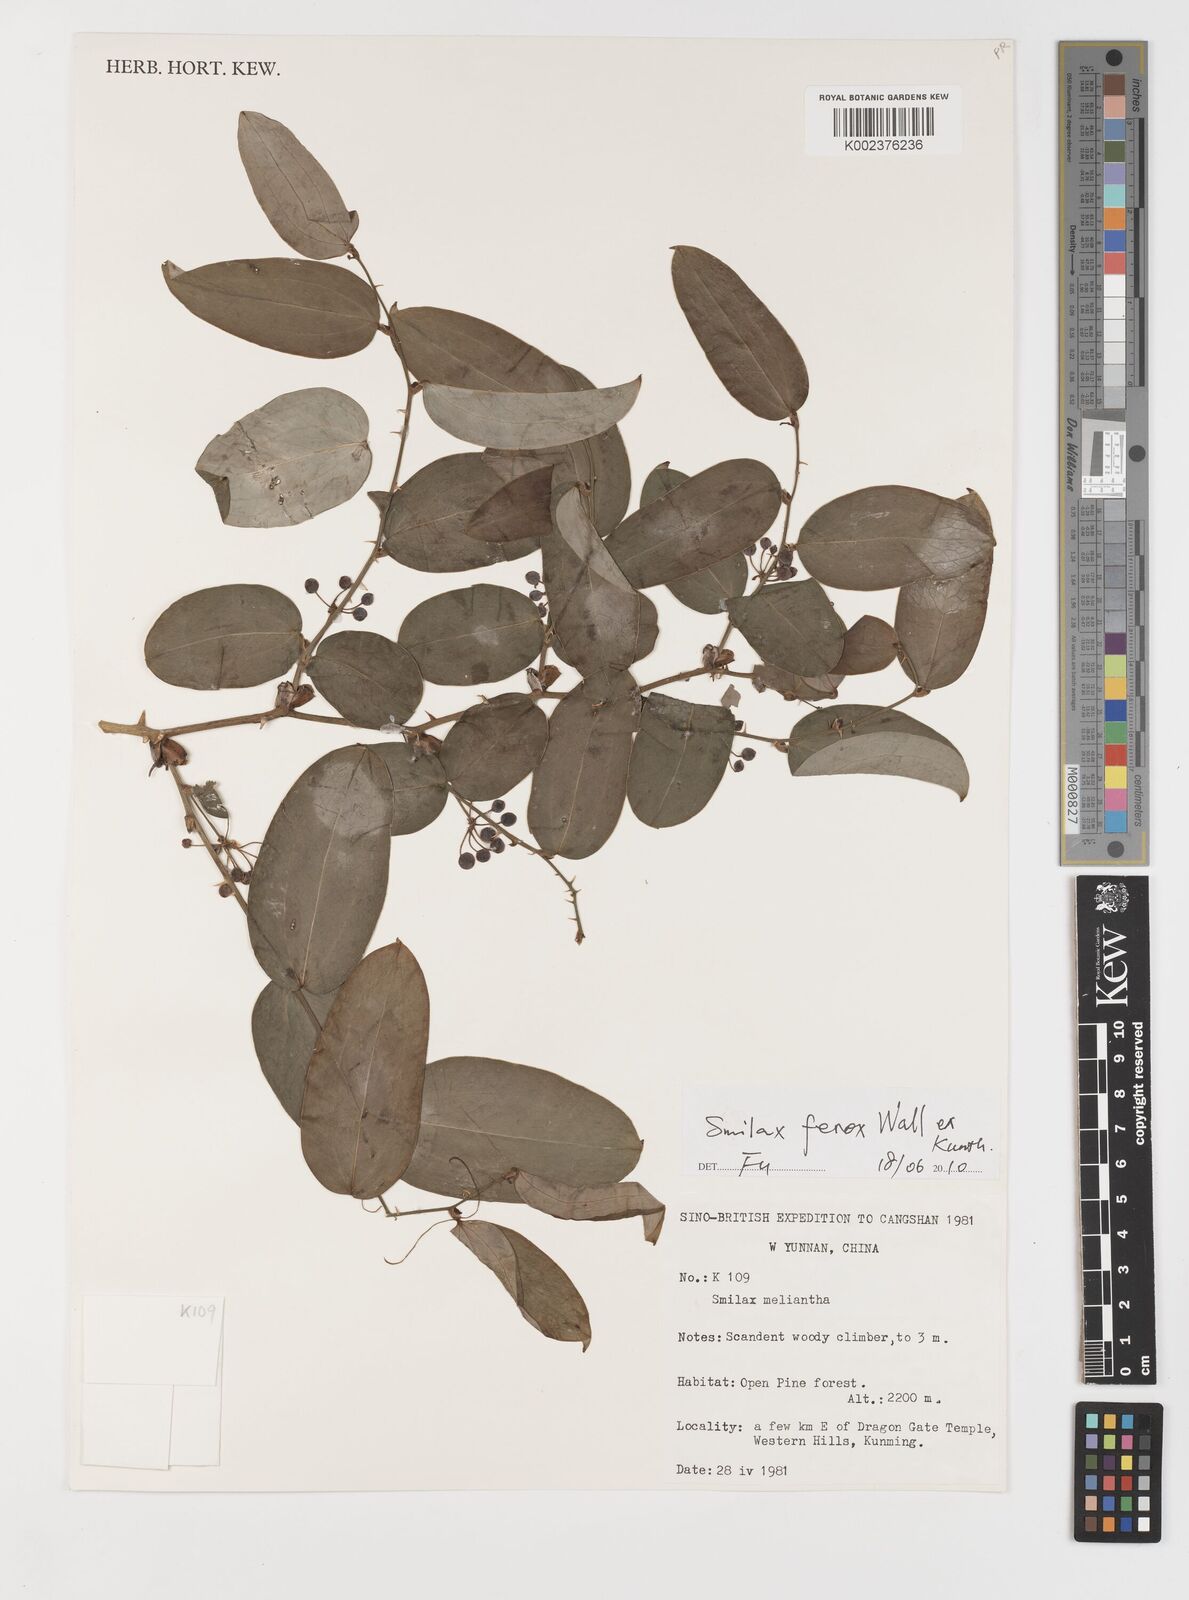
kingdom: Plantae
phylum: Tracheophyta
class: Liliopsida
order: Liliales
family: Smilacaceae
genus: Smilax
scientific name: Smilax ferox
